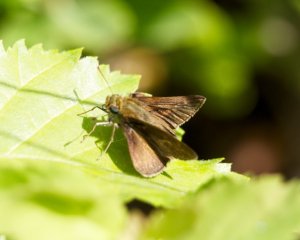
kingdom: Animalia
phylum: Arthropoda
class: Insecta
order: Lepidoptera
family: Hesperiidae
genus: Euphyes
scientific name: Euphyes vestris
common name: Dun Skipper
